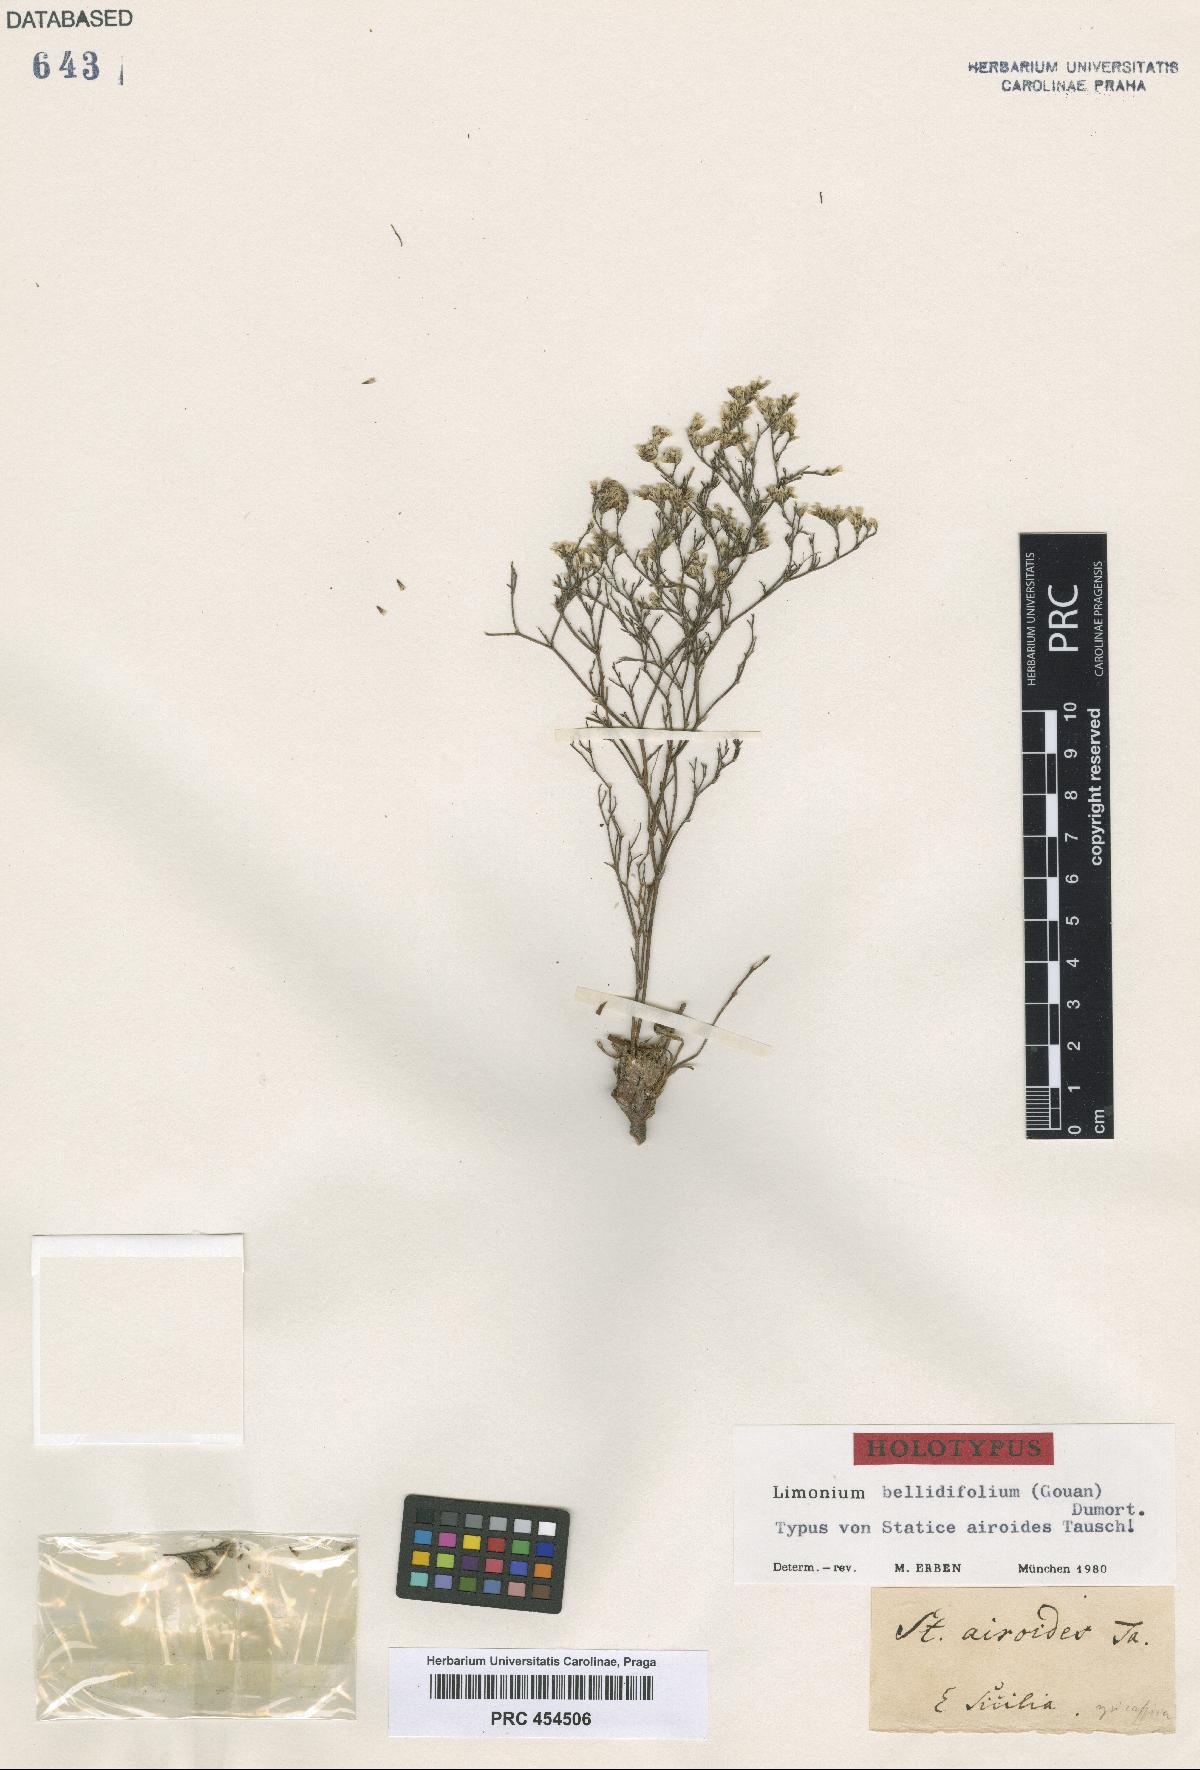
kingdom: Plantae
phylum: Tracheophyta
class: Magnoliopsida
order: Caryophyllales
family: Plumbaginaceae
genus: Limonium
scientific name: Limonium bellidifolium
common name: Matted sea-lavender
